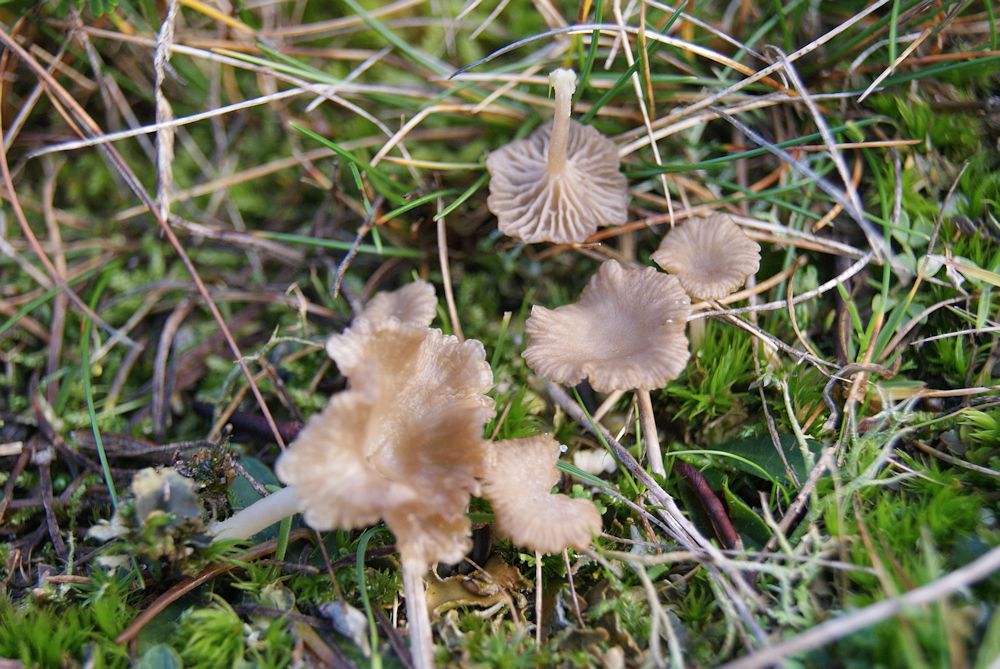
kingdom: Fungi
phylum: Basidiomycota
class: Agaricomycetes
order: Agaricales
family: Hygrophoraceae
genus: Arrhenia
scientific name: Arrhenia peltigerina
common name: skjoldlav-fontænehat
